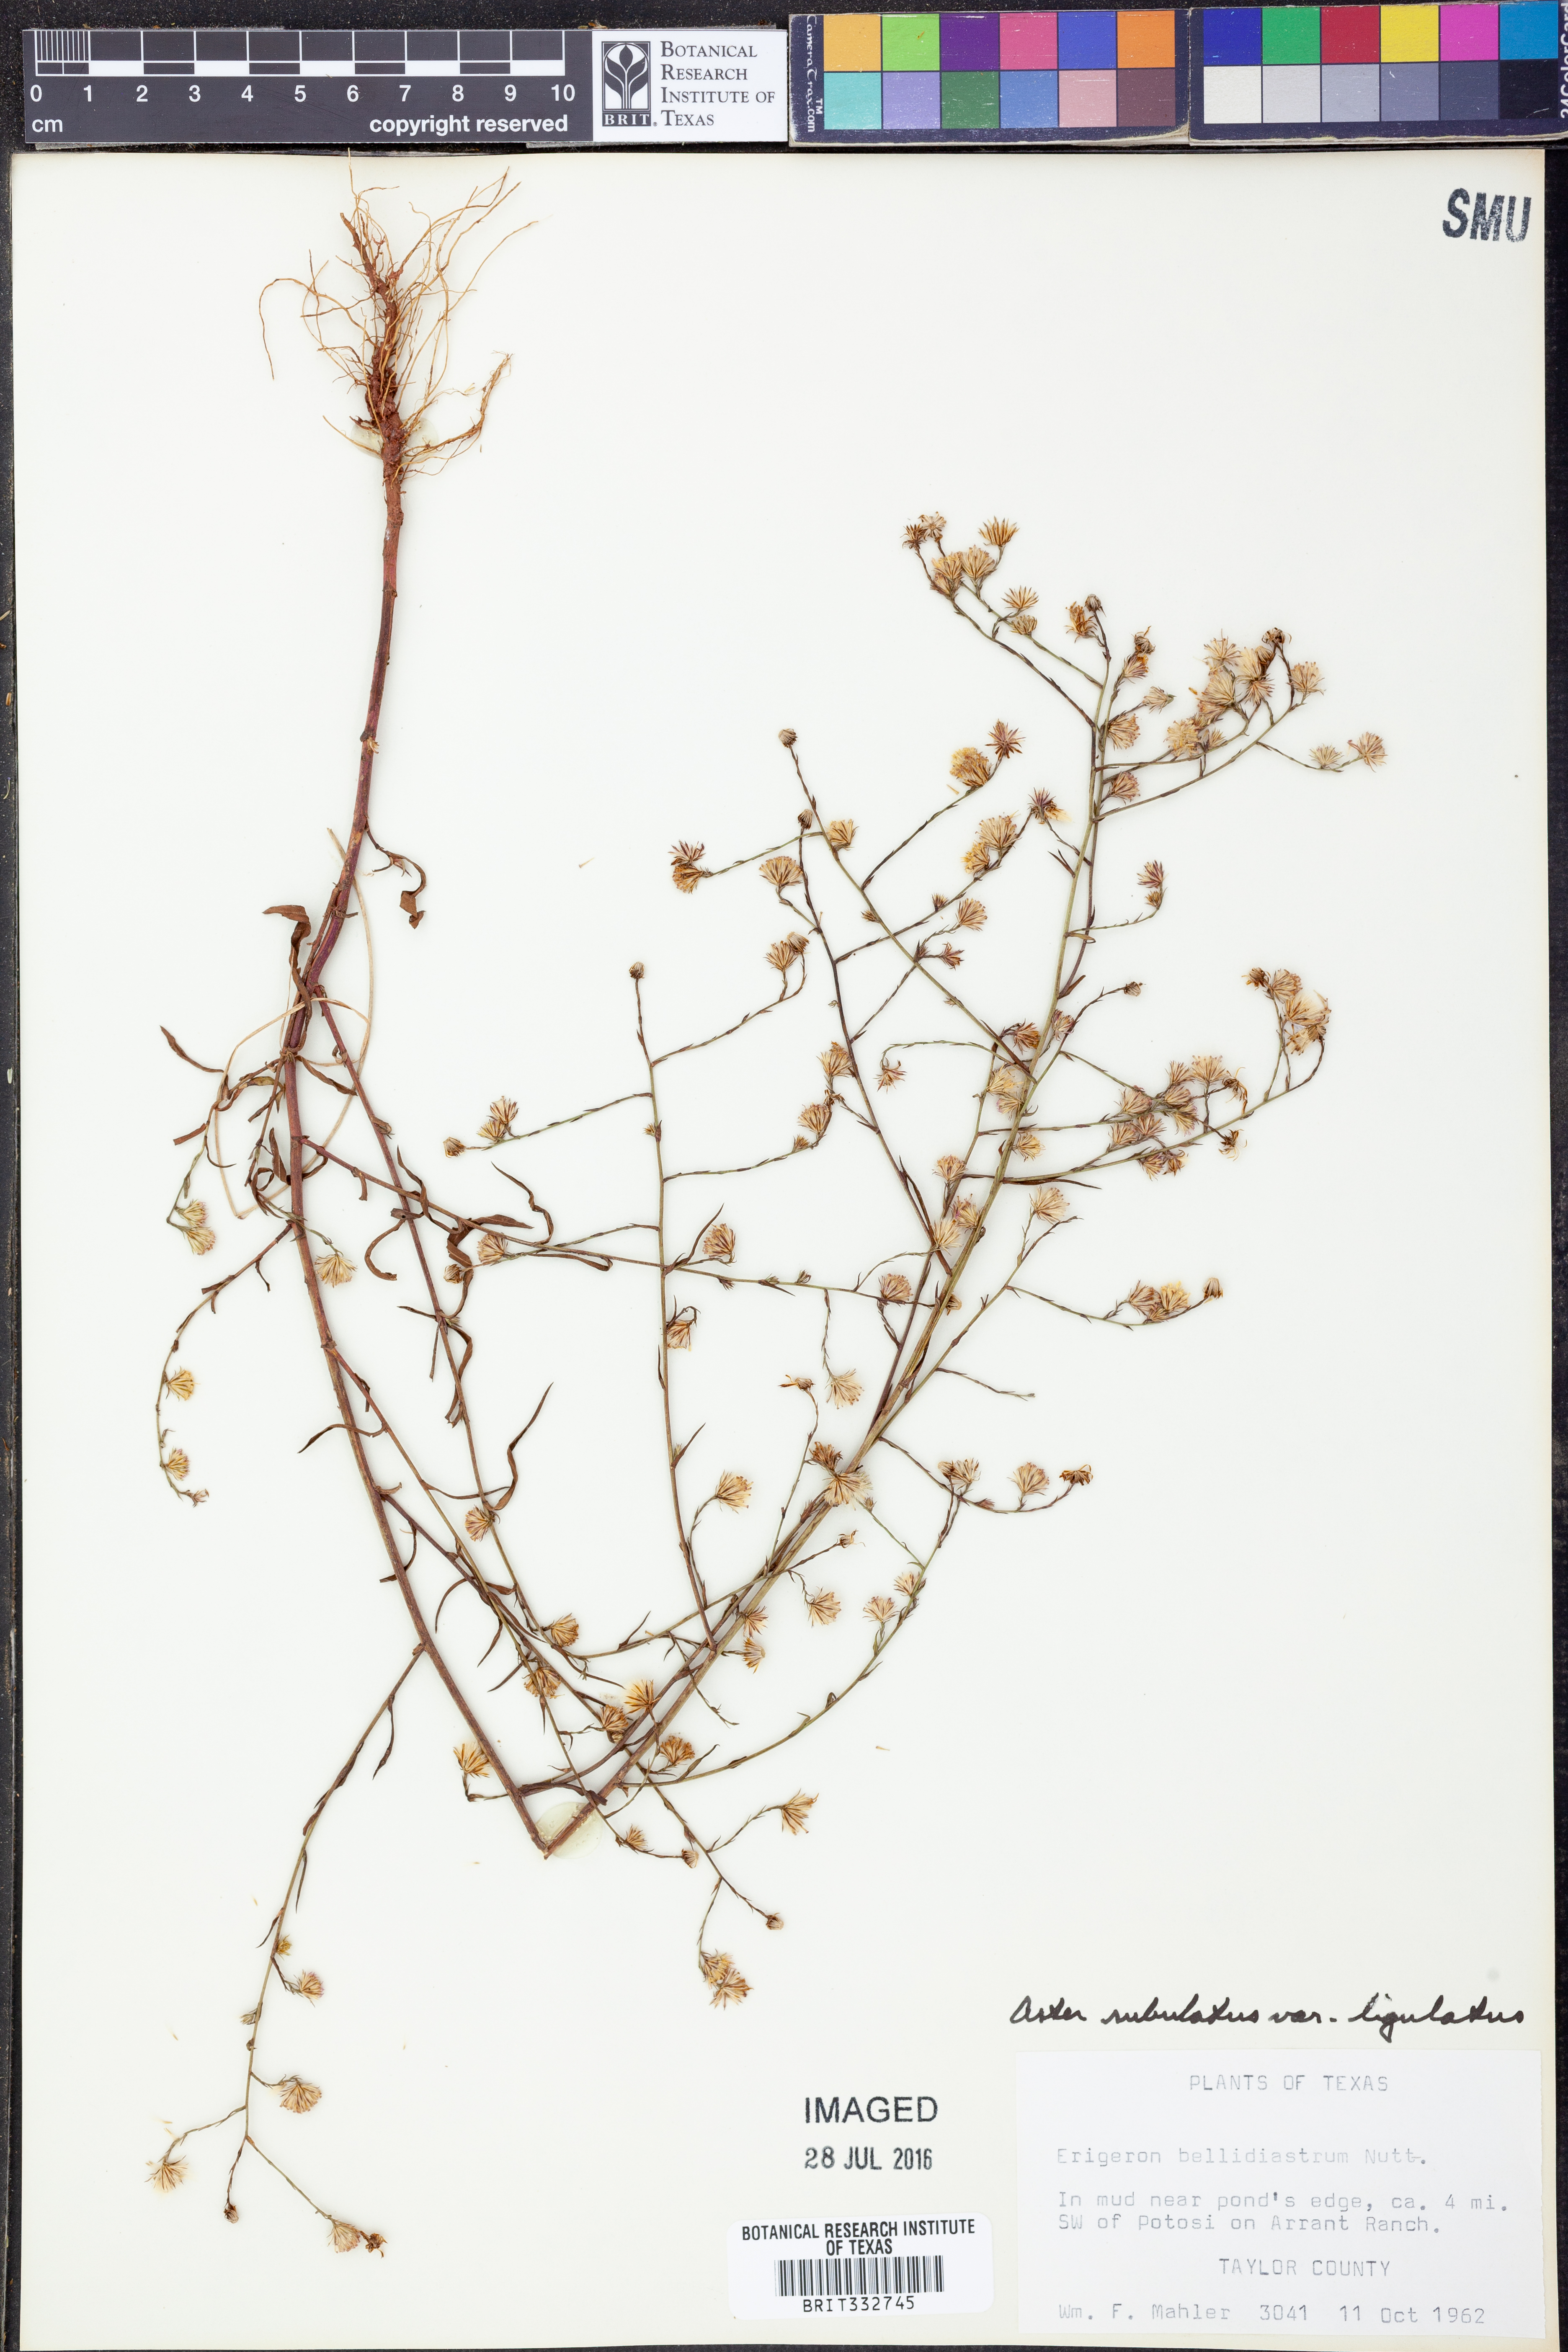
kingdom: Plantae
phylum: Tracheophyta
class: Magnoliopsida
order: Asterales
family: Asteraceae
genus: Symphyotrichum
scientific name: Symphyotrichum divaricatum
